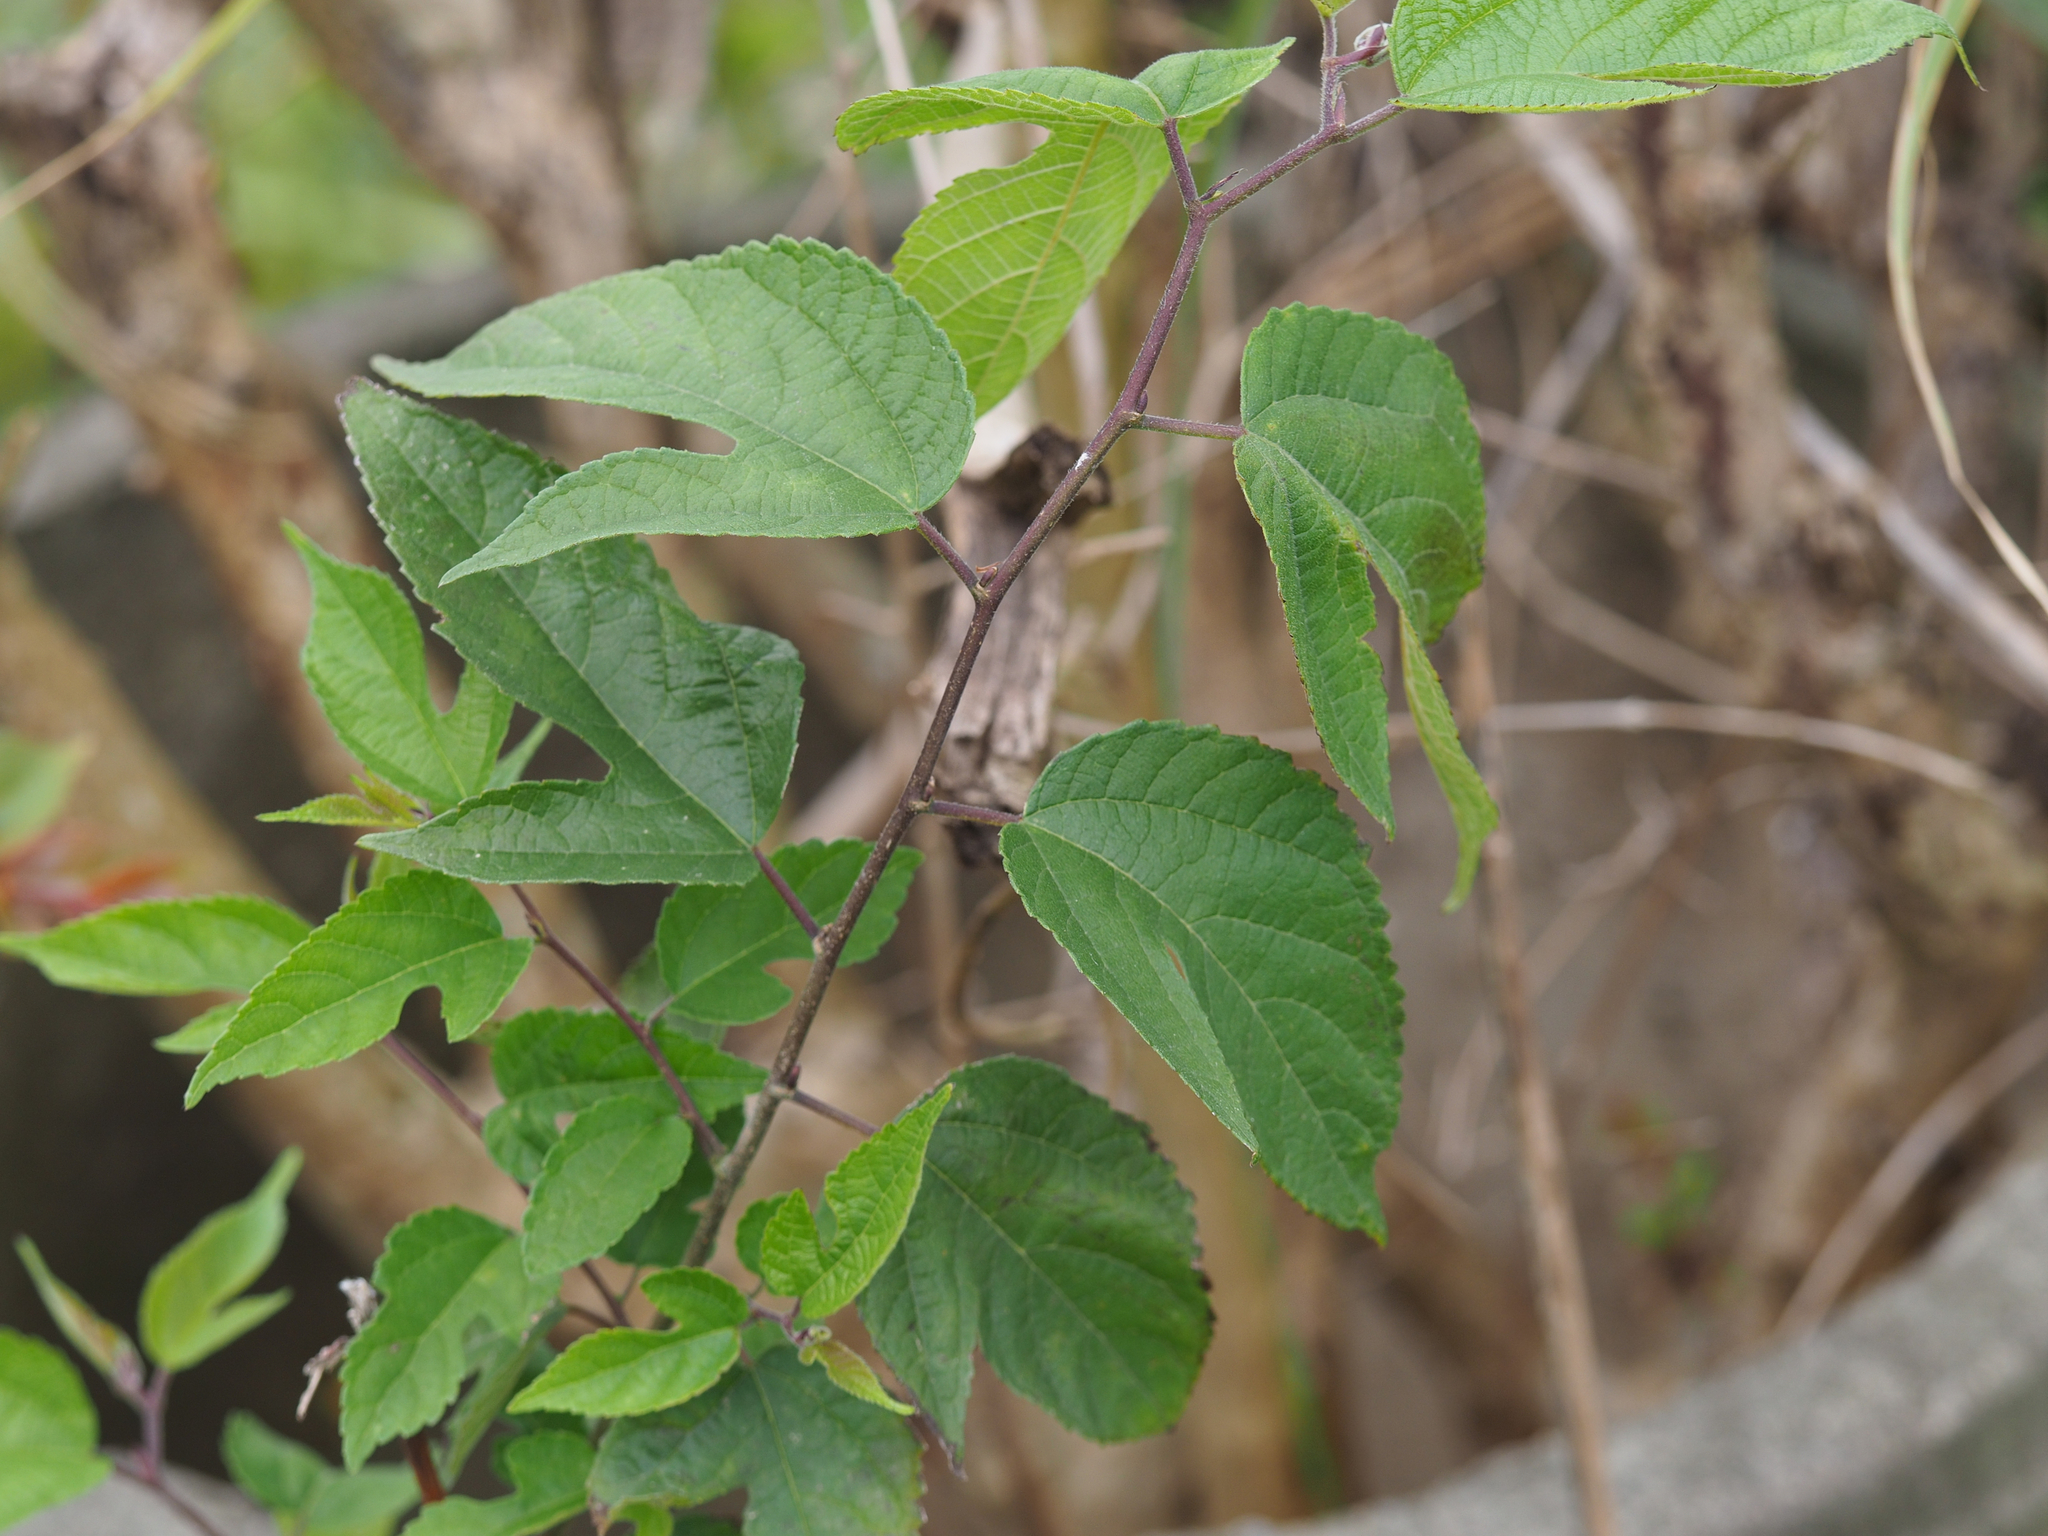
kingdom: Plantae
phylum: Tracheophyta
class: Magnoliopsida
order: Rosales
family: Moraceae
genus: Broussonetia
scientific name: Broussonetia monoica
